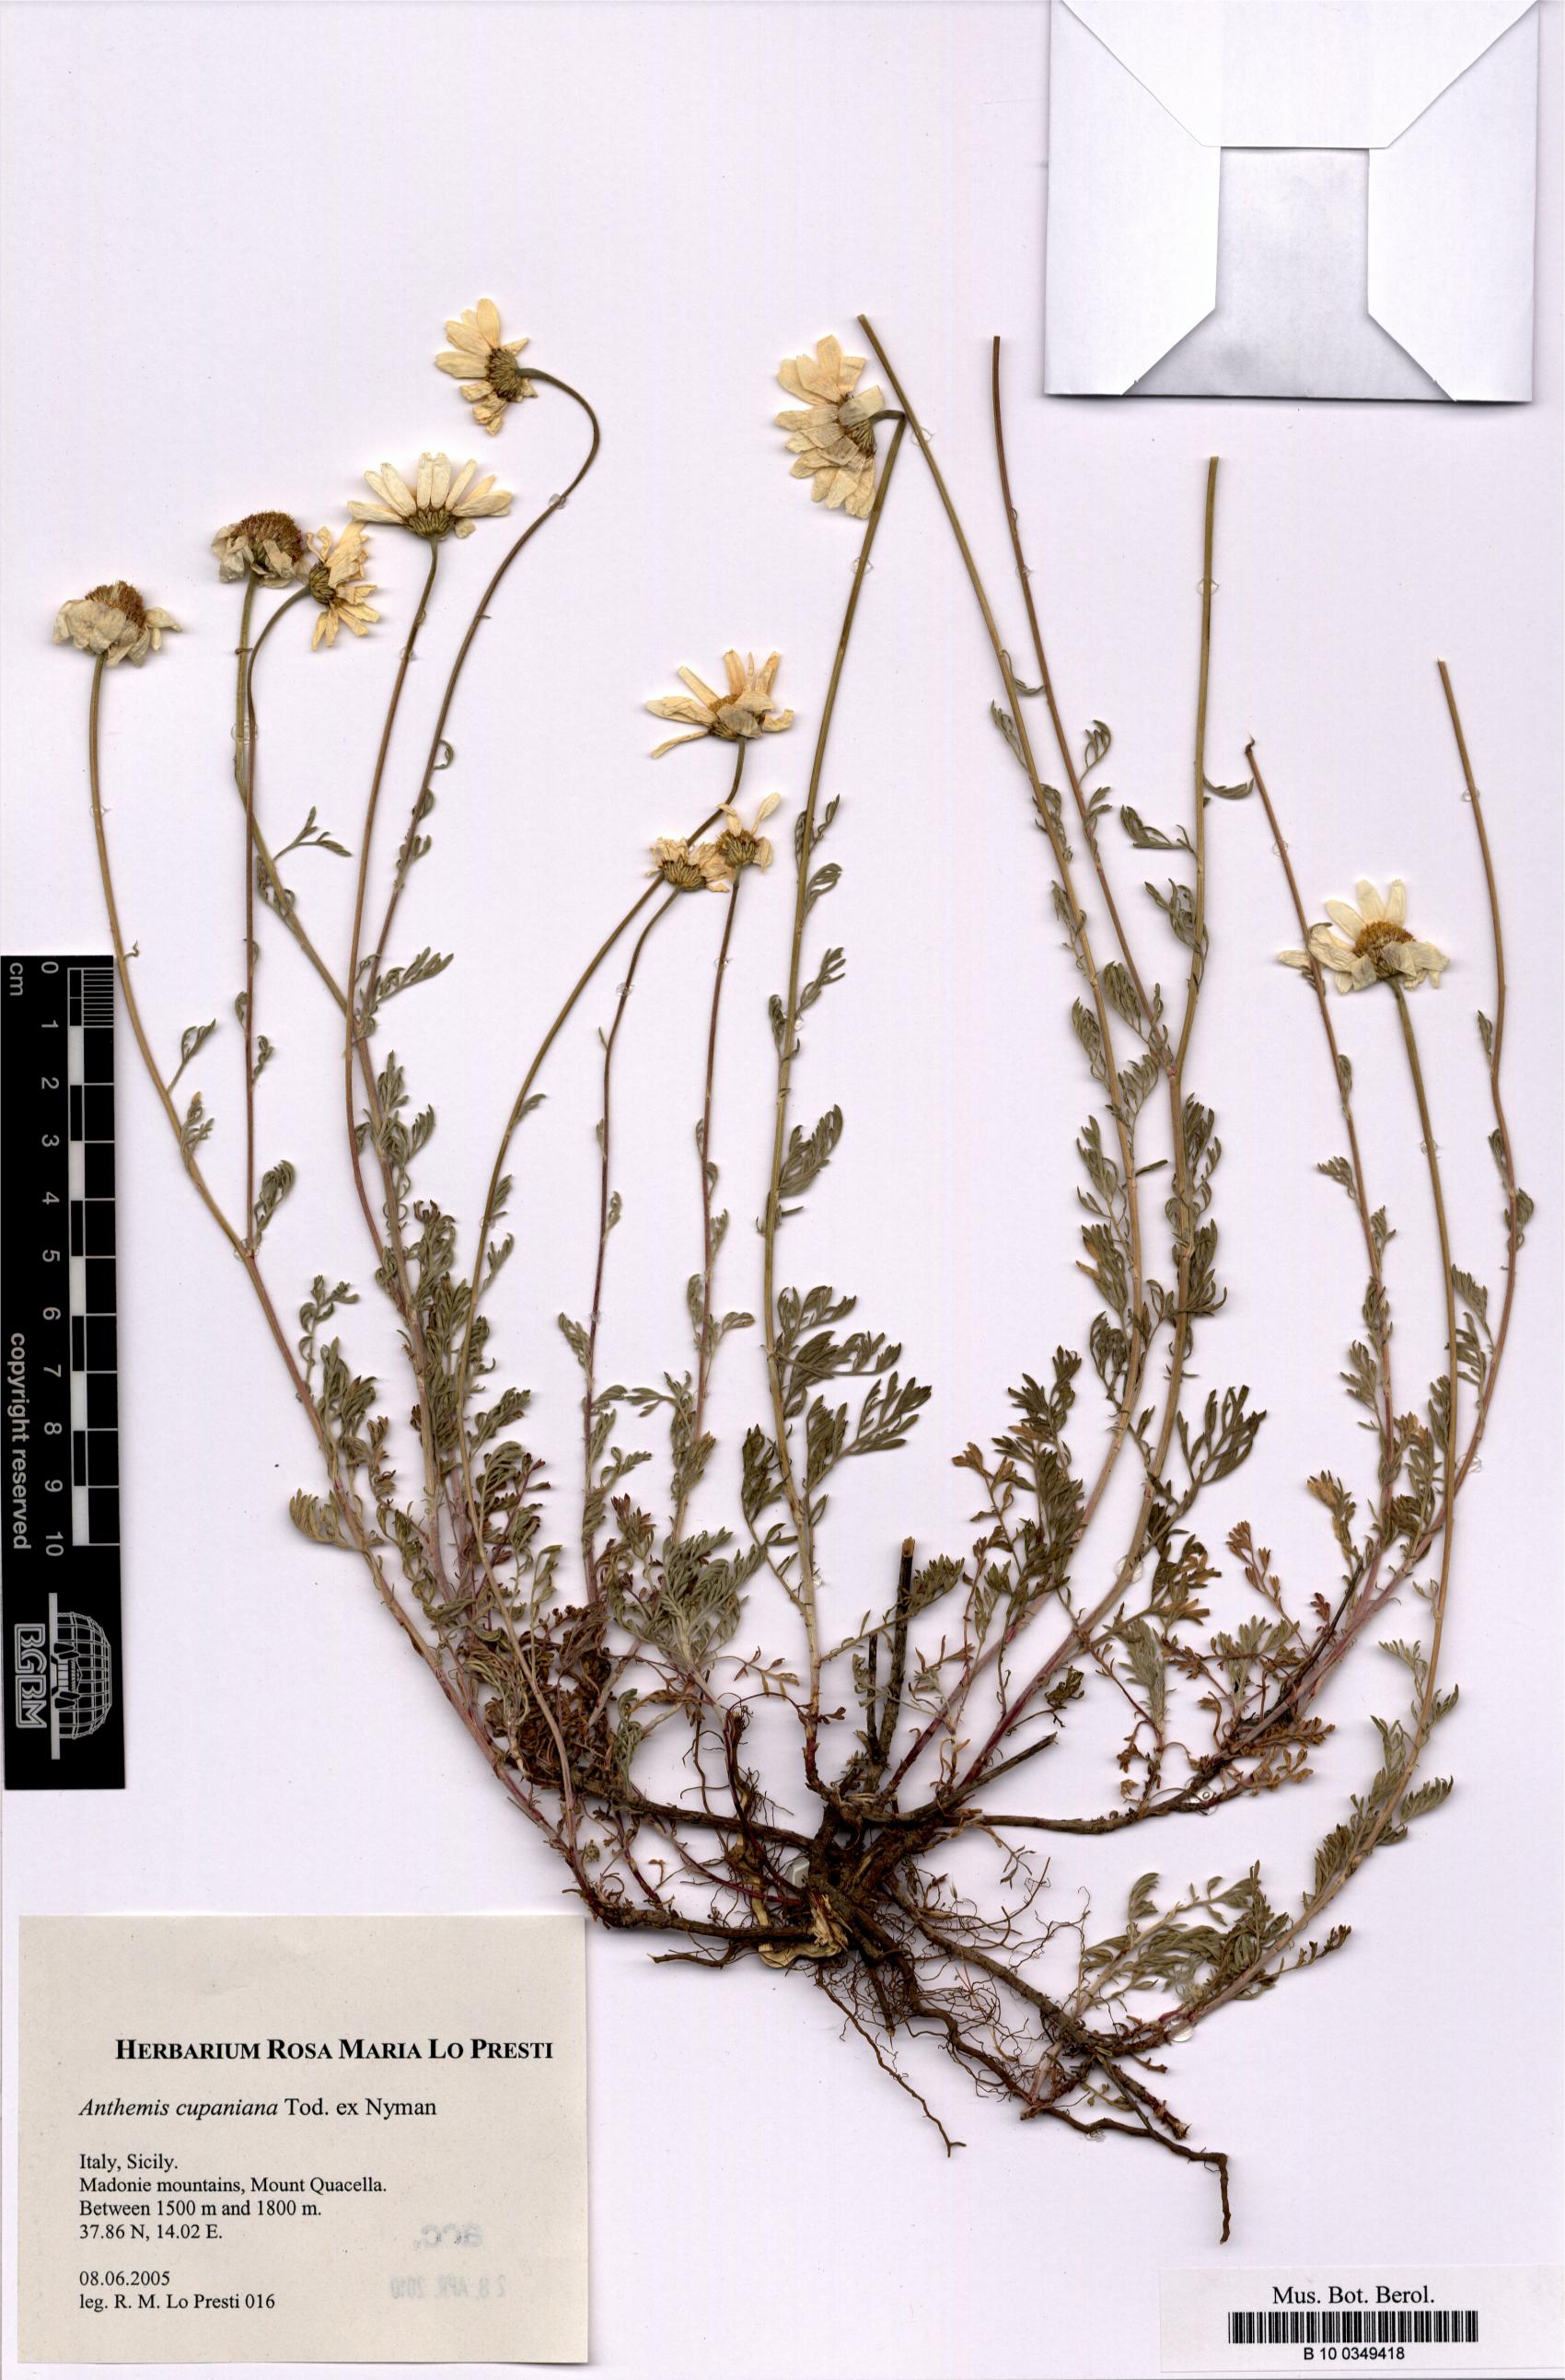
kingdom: Plantae
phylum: Tracheophyta
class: Magnoliopsida
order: Asterales
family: Asteraceae
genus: Anthemis
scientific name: Anthemis cupaniana
